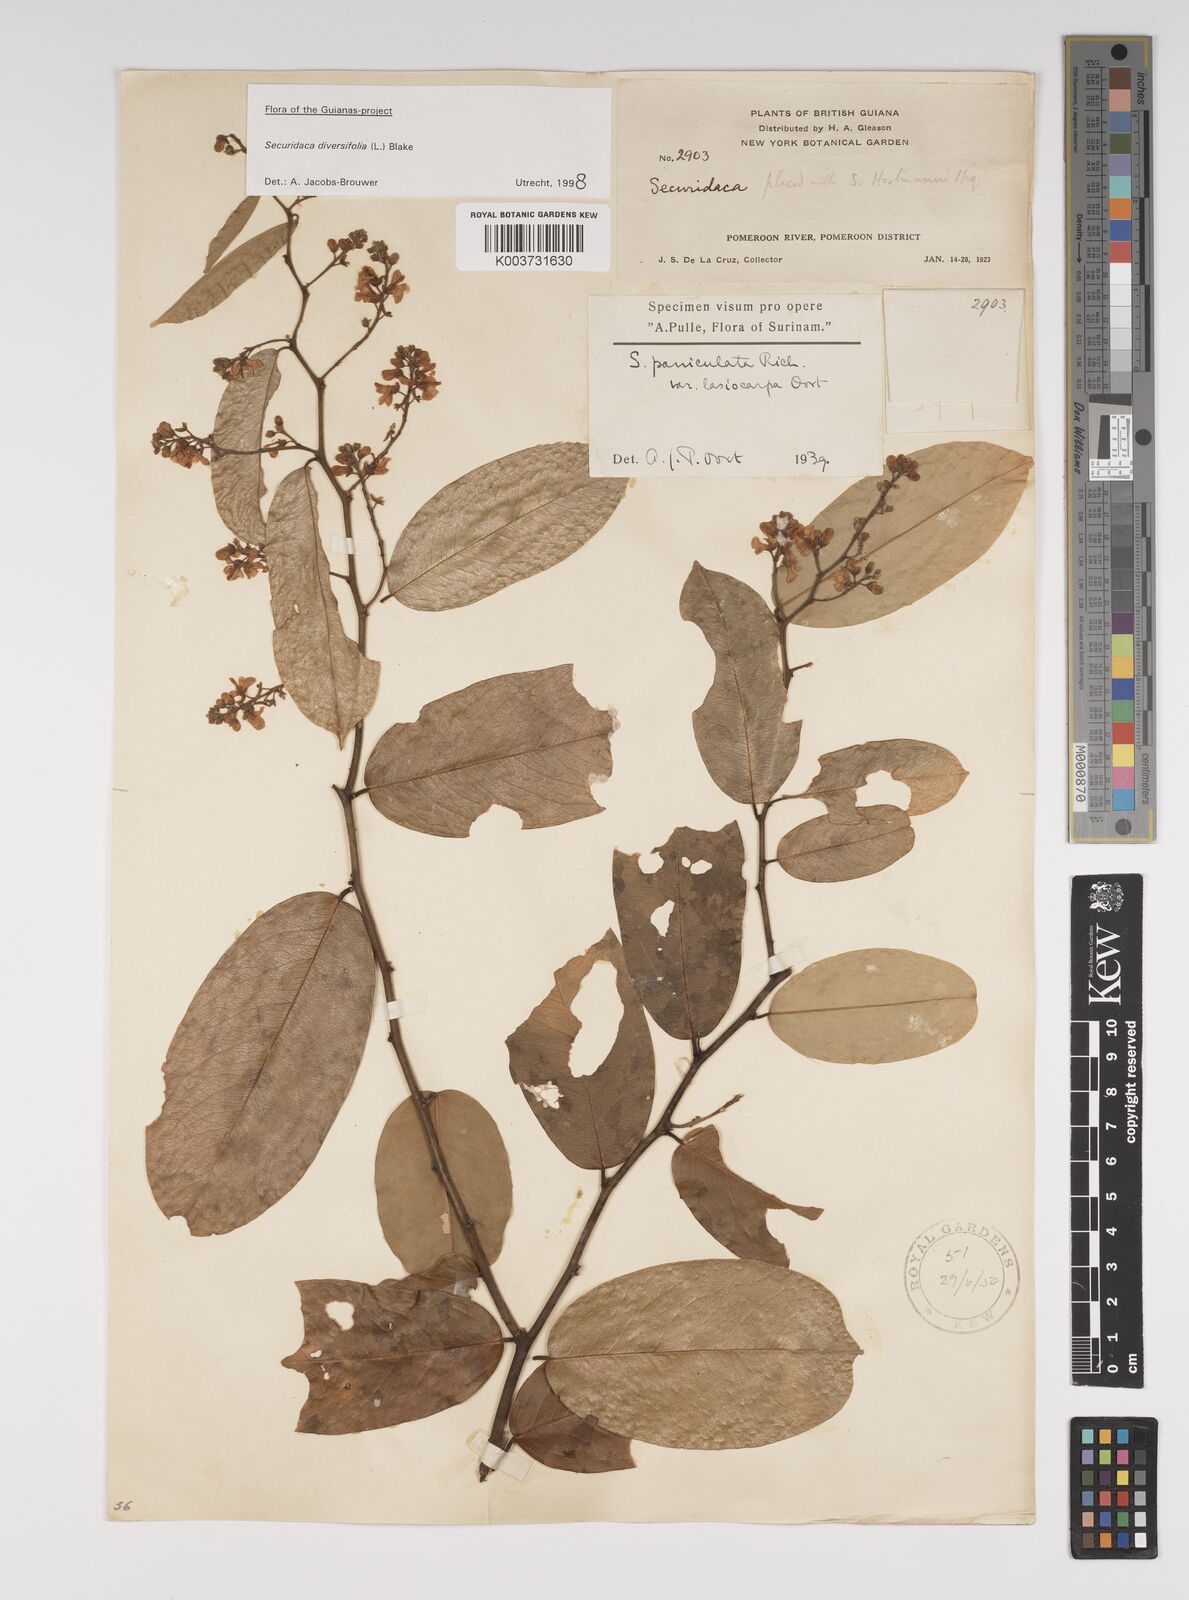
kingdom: Plantae
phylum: Tracheophyta
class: Magnoliopsida
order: Fabales
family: Polygalaceae
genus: Securidaca
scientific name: Securidaca paniculata
